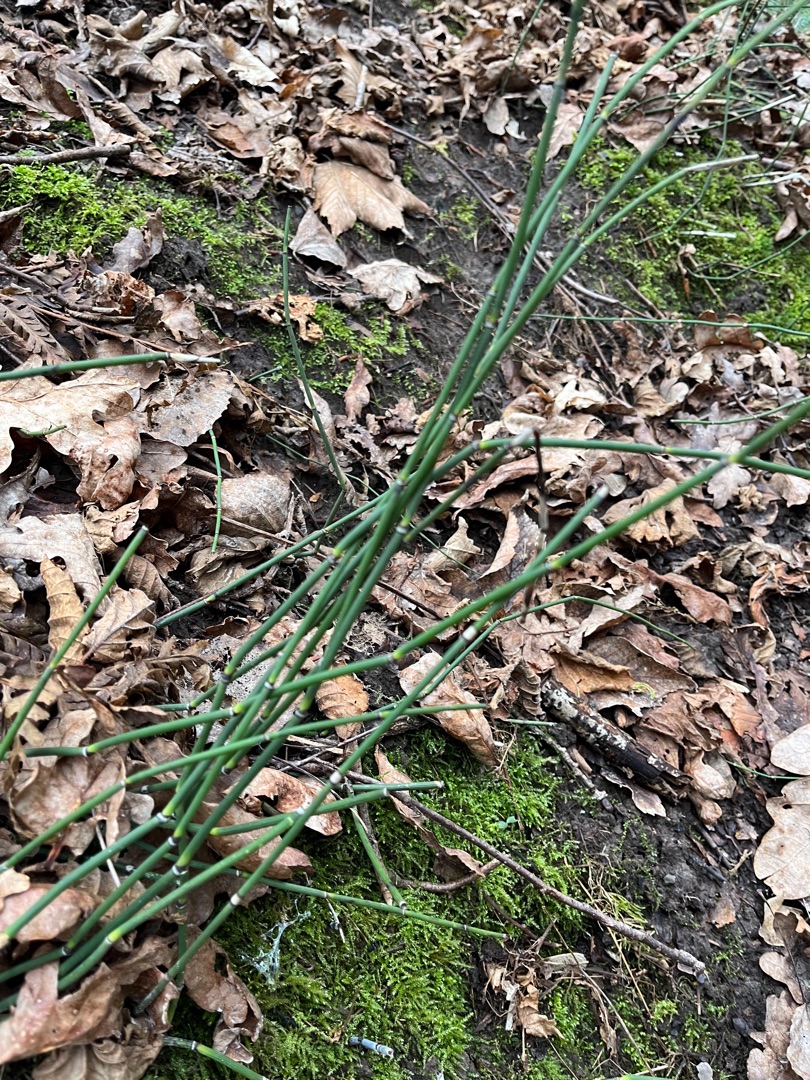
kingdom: Plantae
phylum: Tracheophyta
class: Polypodiopsida
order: Equisetales
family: Equisetaceae
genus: Equisetum
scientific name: Equisetum hyemale
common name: Skavgræs
